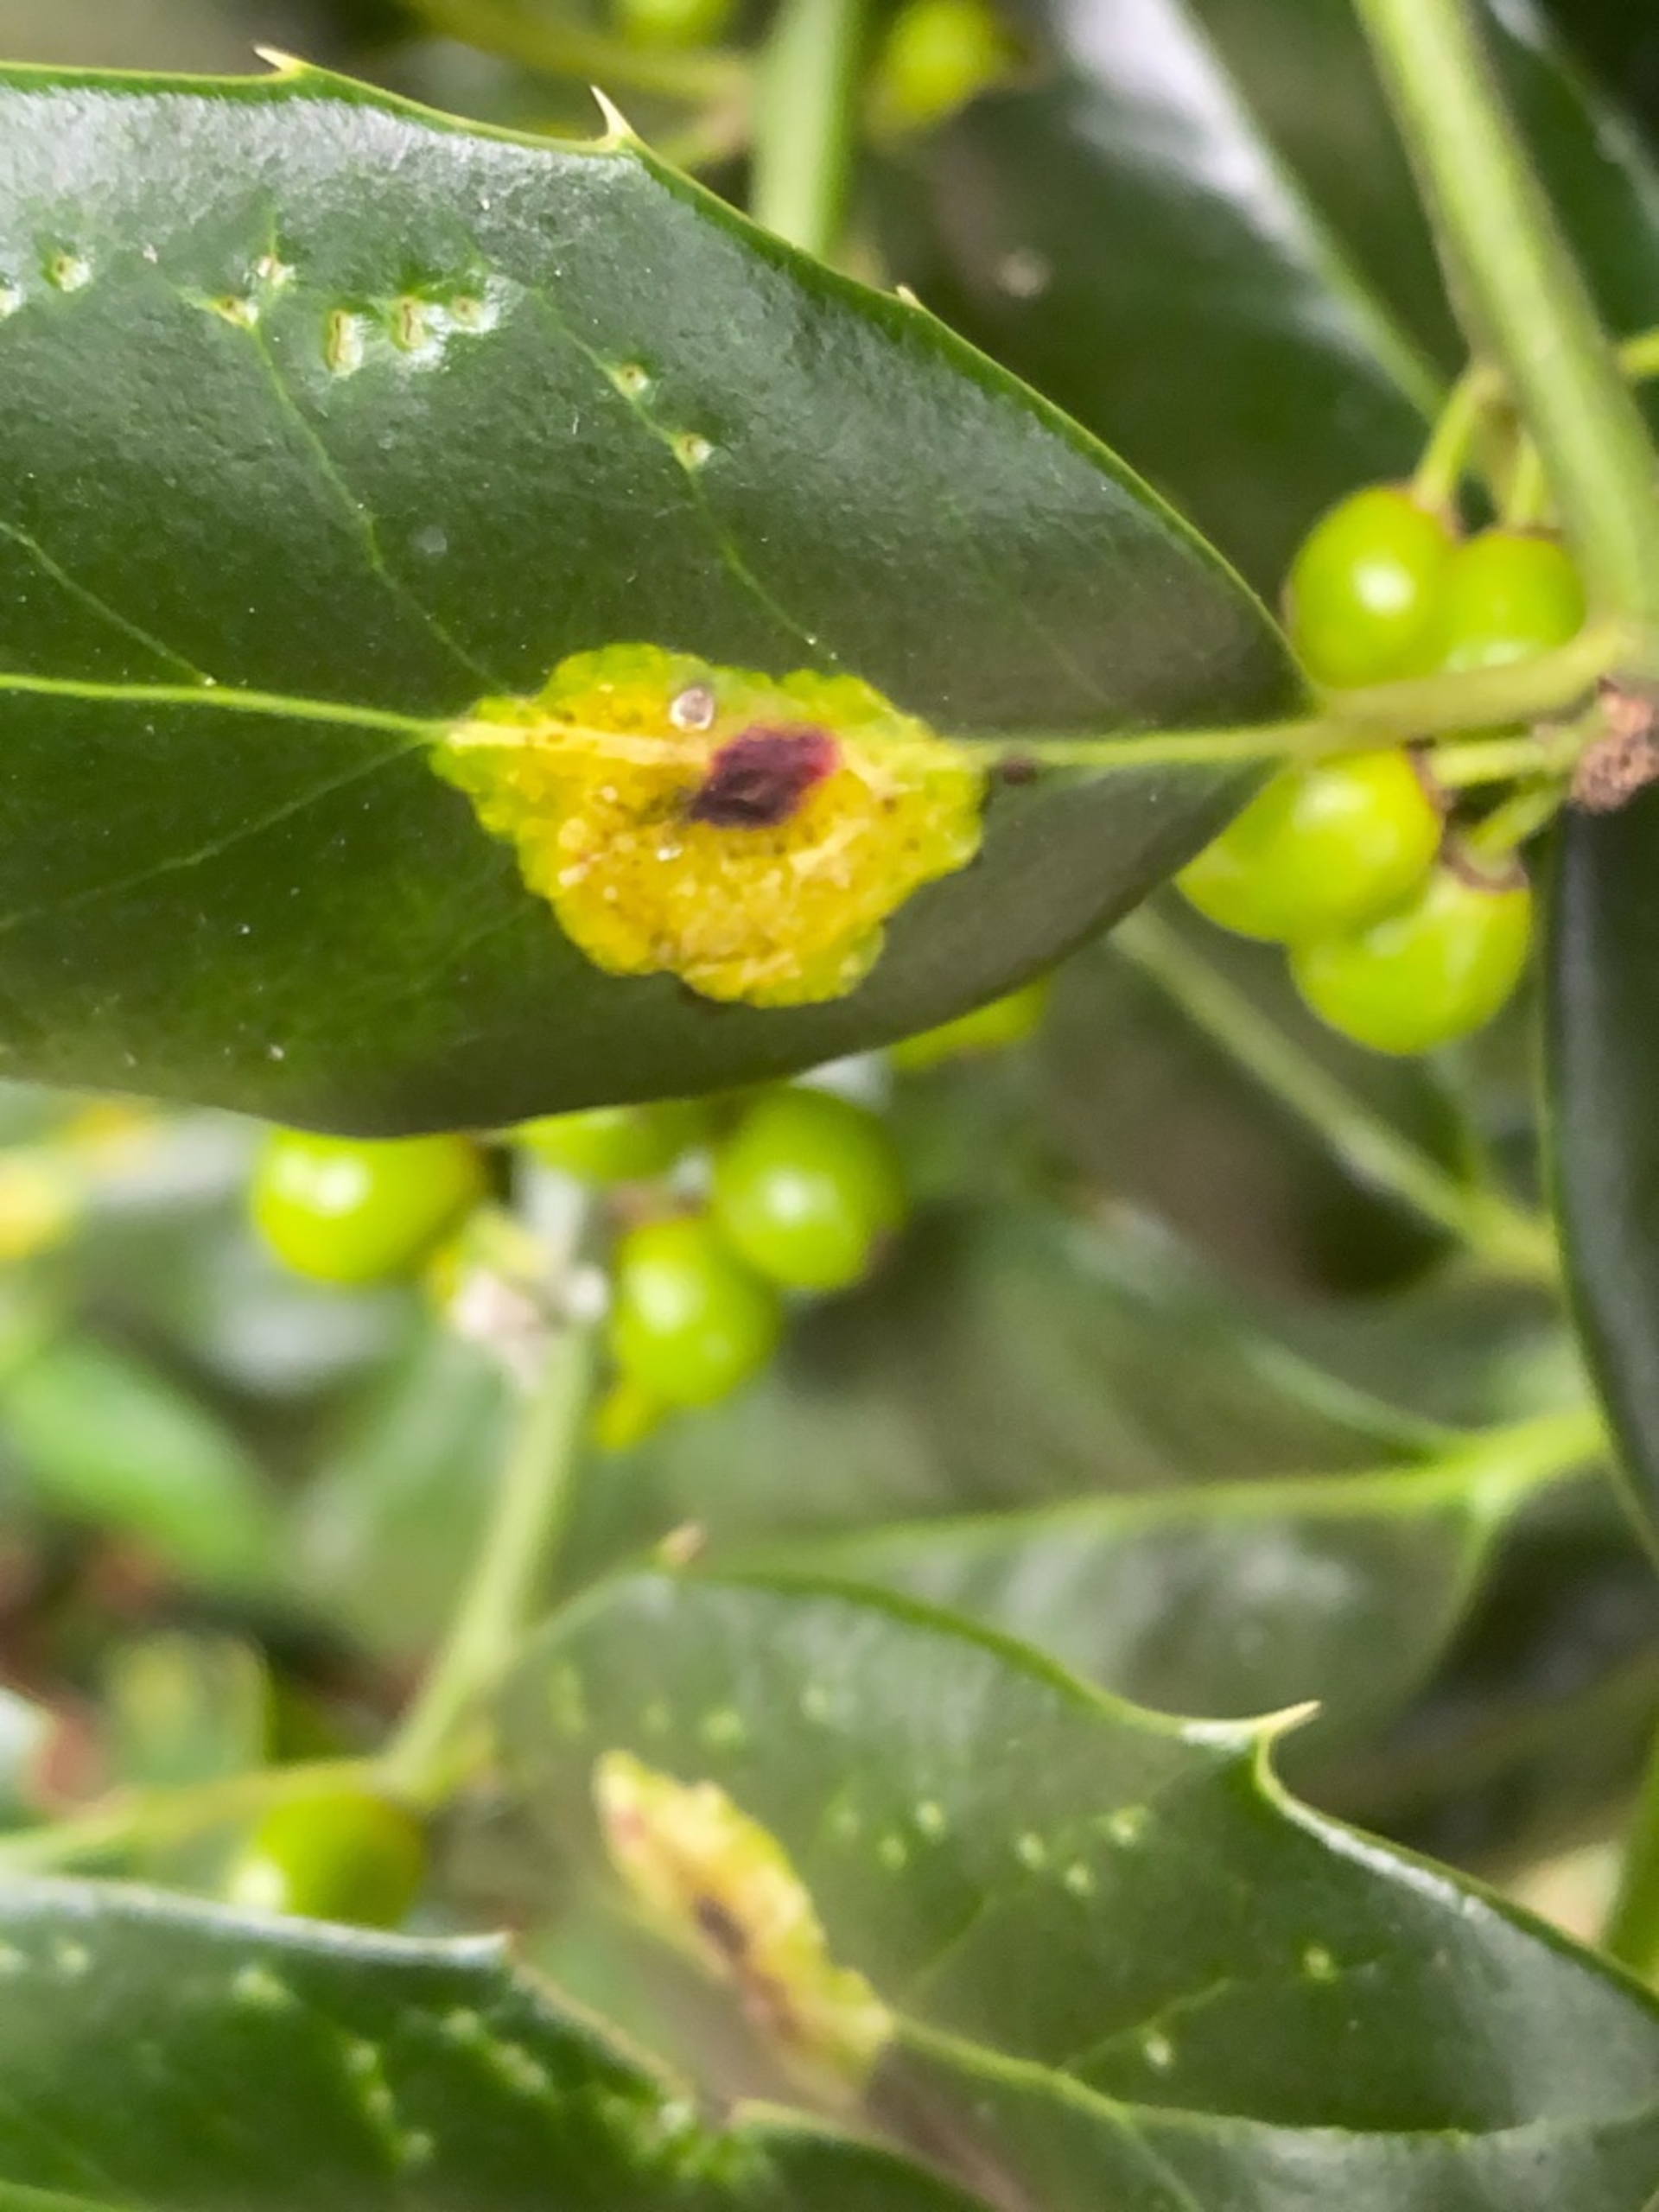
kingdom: Animalia
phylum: Arthropoda
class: Insecta
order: Diptera
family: Agromyzidae
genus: Phytomyza
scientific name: Phytomyza ilicis
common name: Kristtornminérflue
